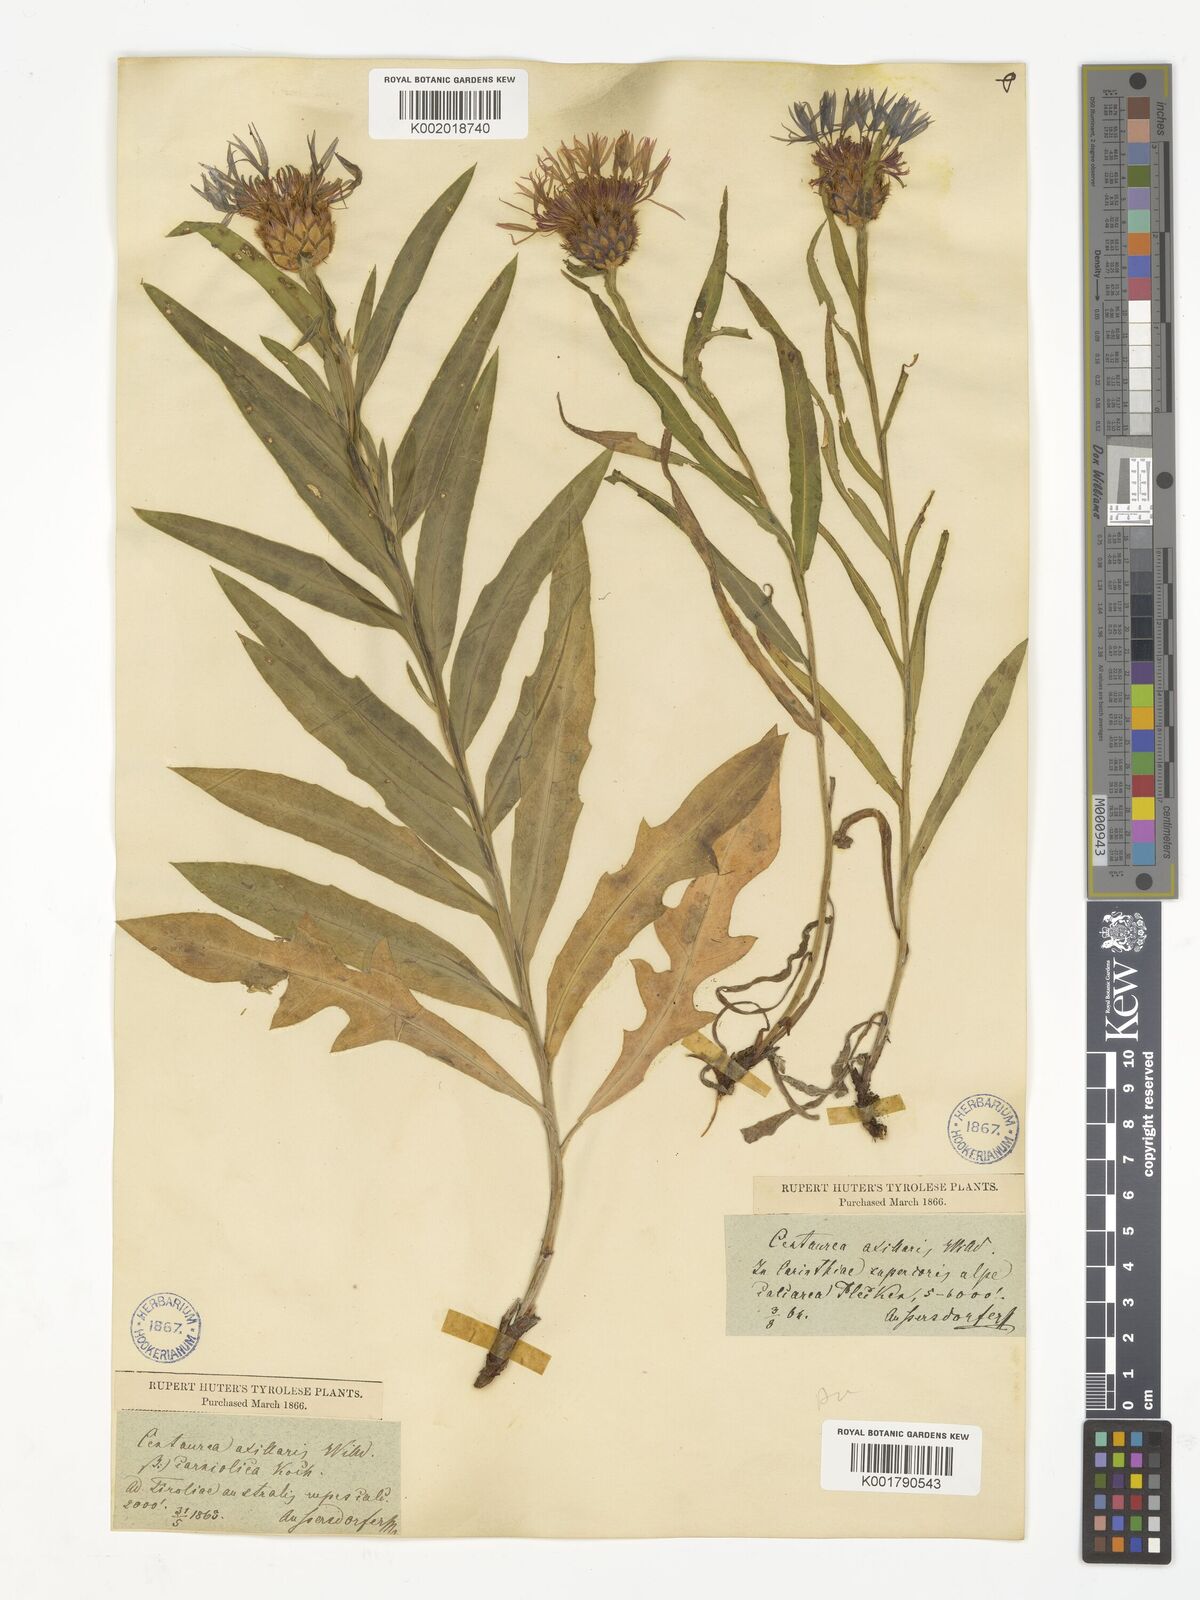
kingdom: Plantae
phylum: Tracheophyta
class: Magnoliopsida
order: Asterales
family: Asteraceae
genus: Centaurea
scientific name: Centaurea triumfettii
